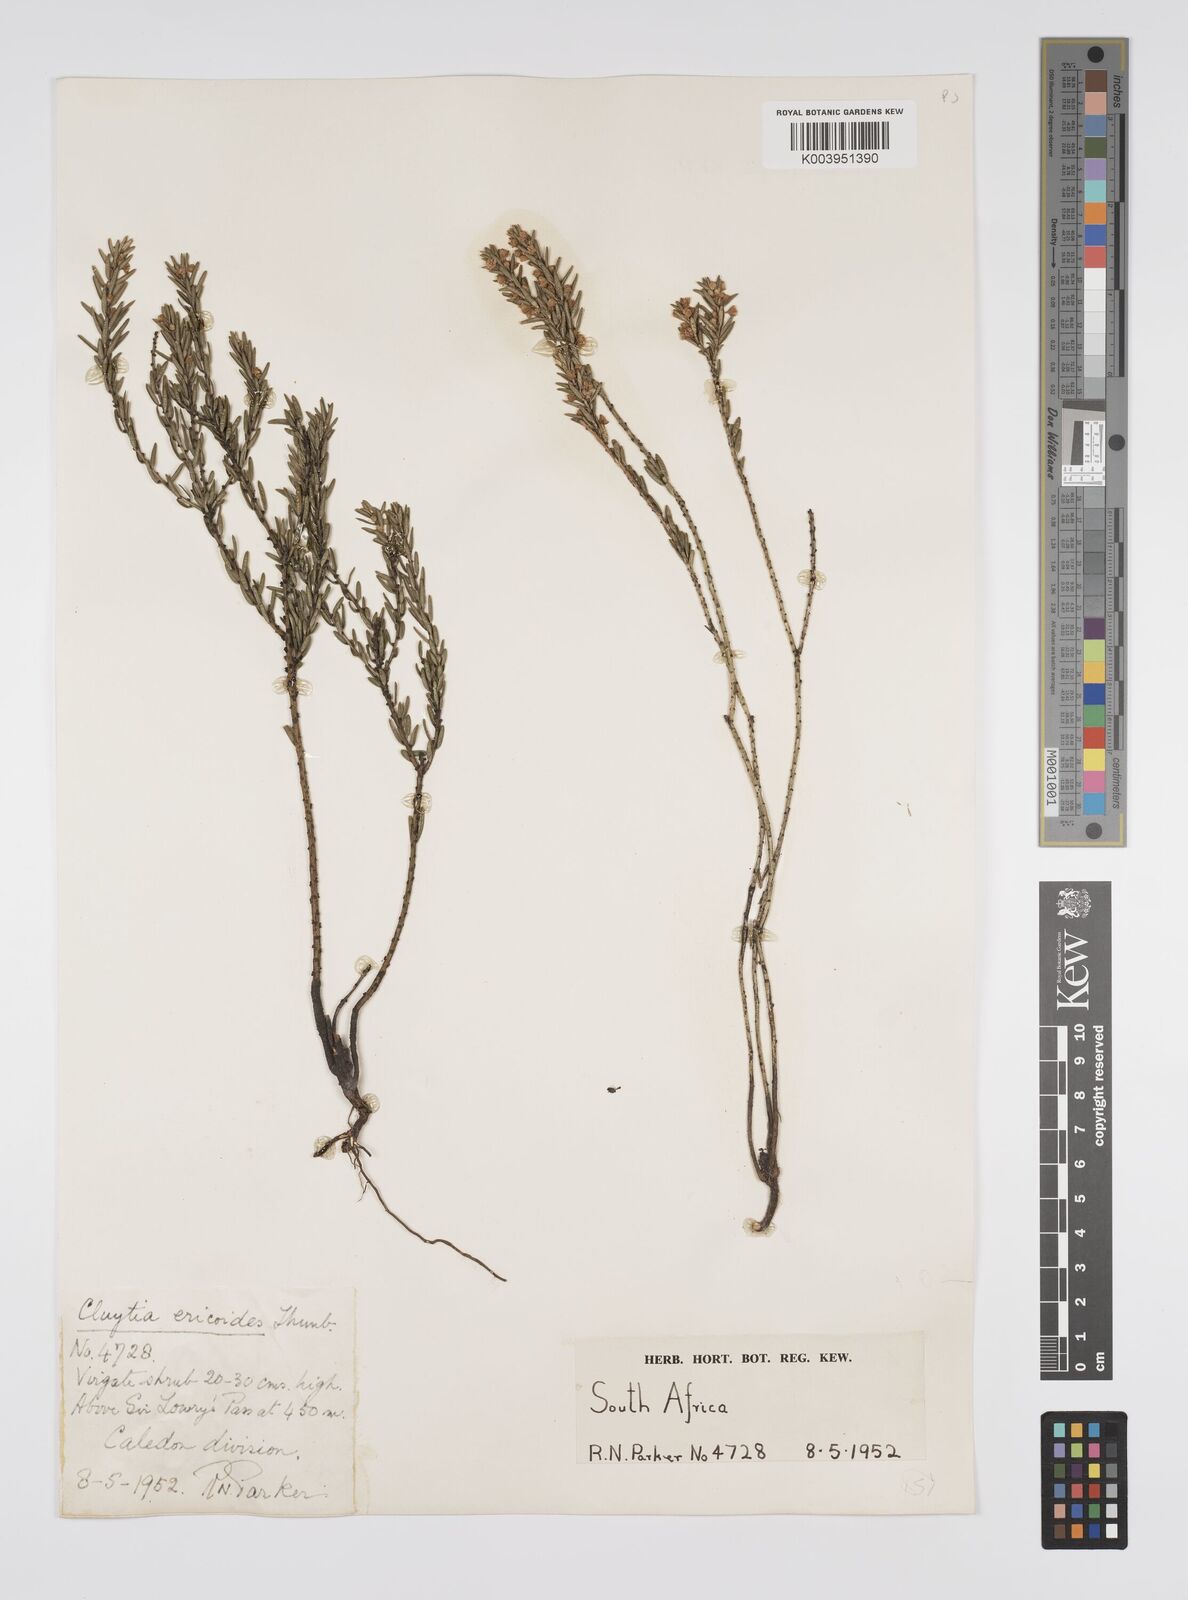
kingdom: Plantae
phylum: Tracheophyta
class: Magnoliopsida
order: Malpighiales
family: Peraceae
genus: Clutia
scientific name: Clutia
